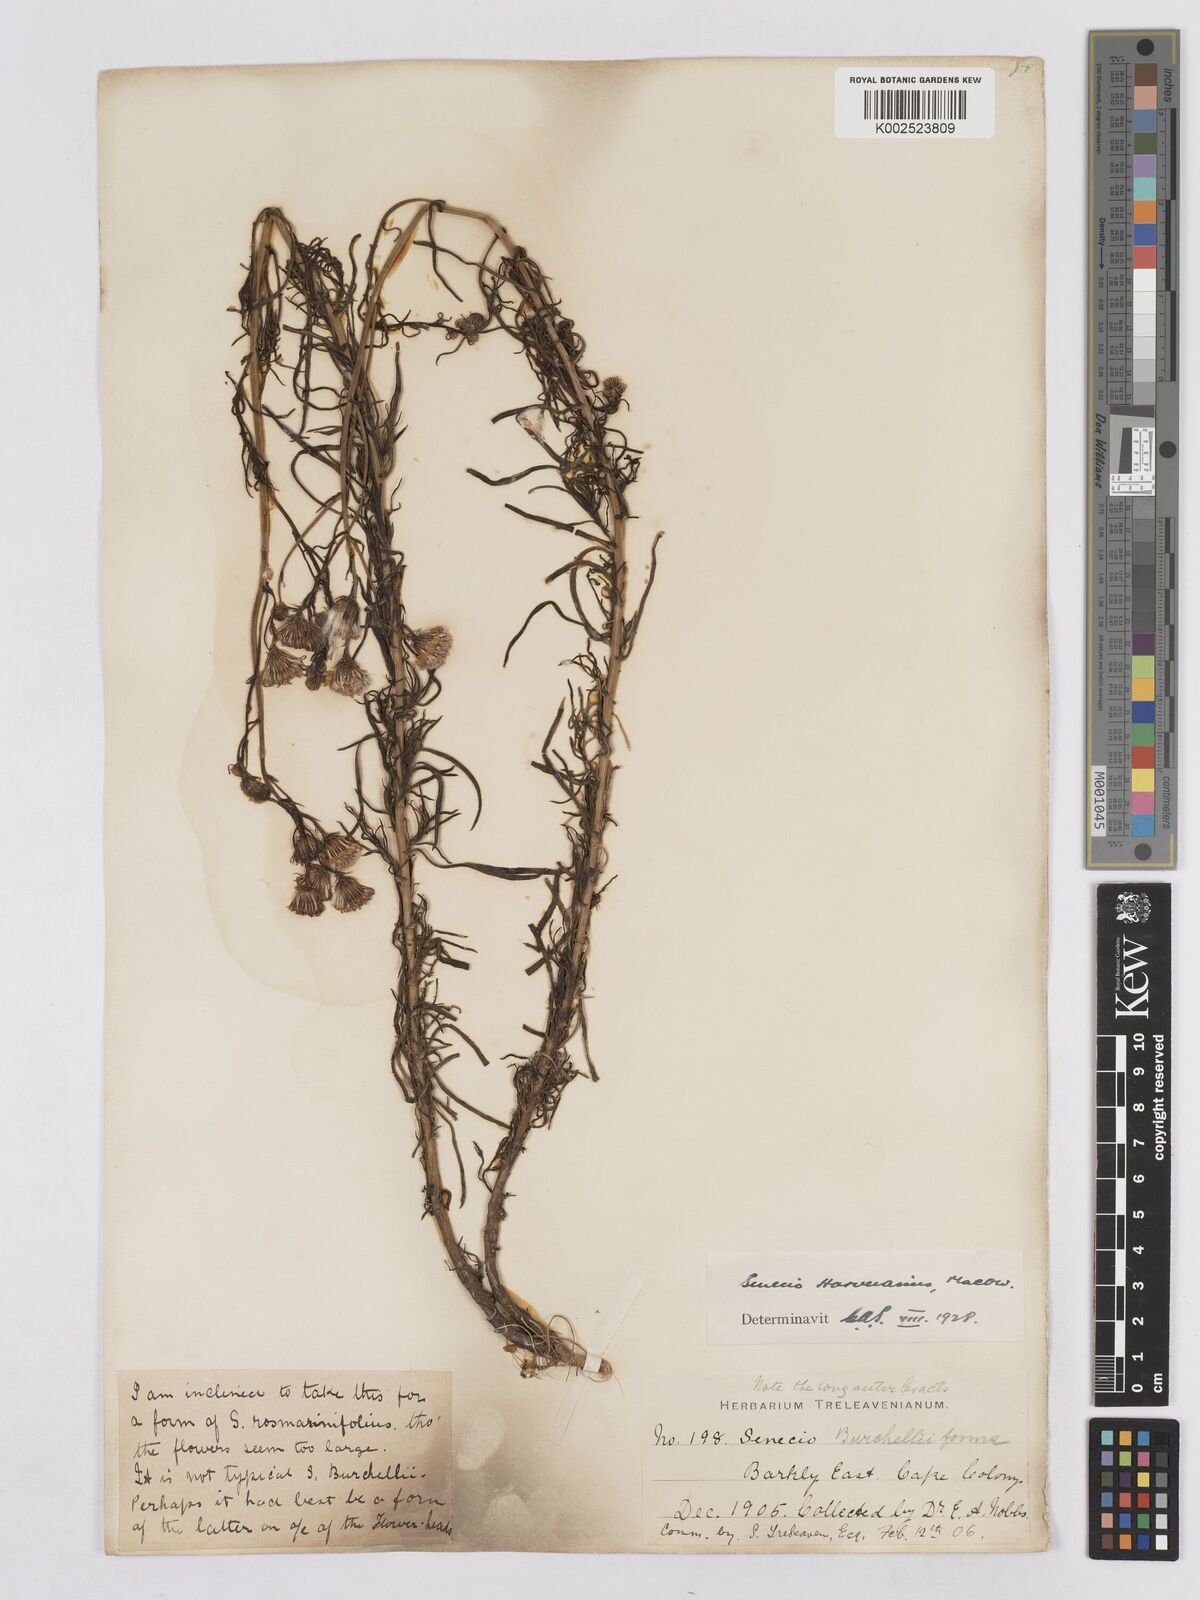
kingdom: Plantae
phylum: Tracheophyta
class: Magnoliopsida
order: Asterales
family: Asteraceae
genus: Senecio
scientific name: Senecio harveyanus
